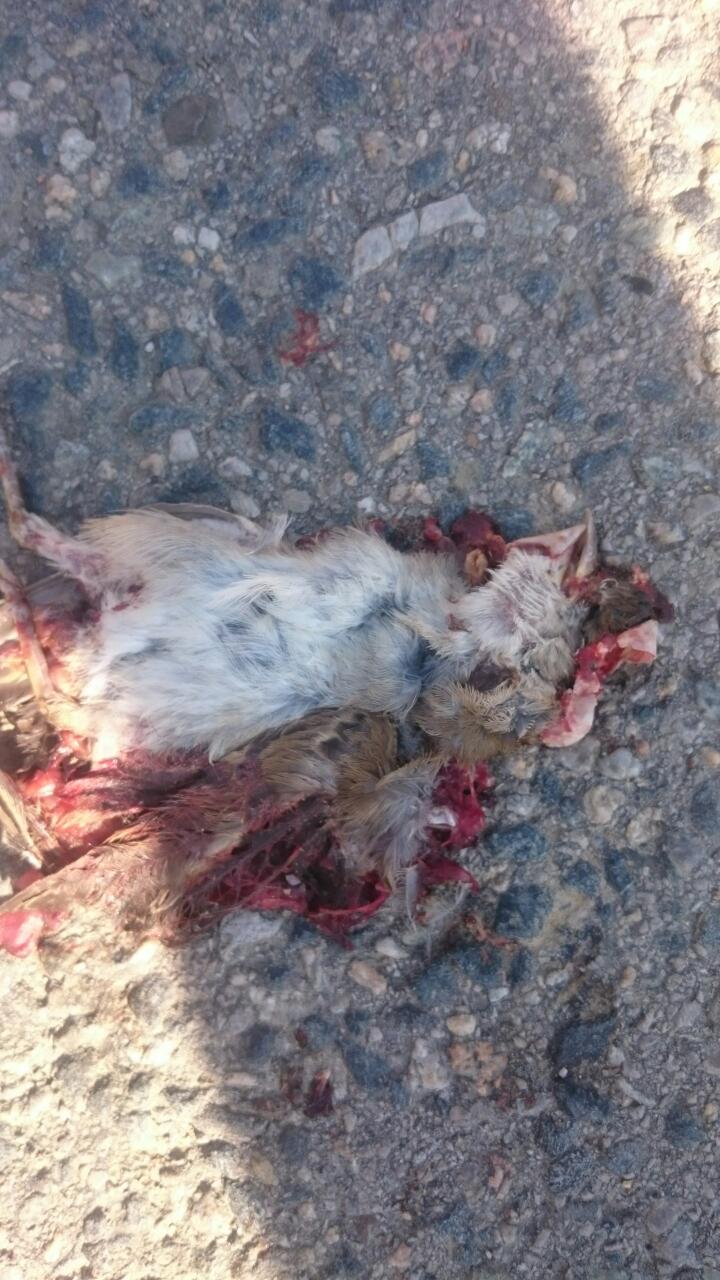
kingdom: Animalia
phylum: Chordata
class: Aves
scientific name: Aves
